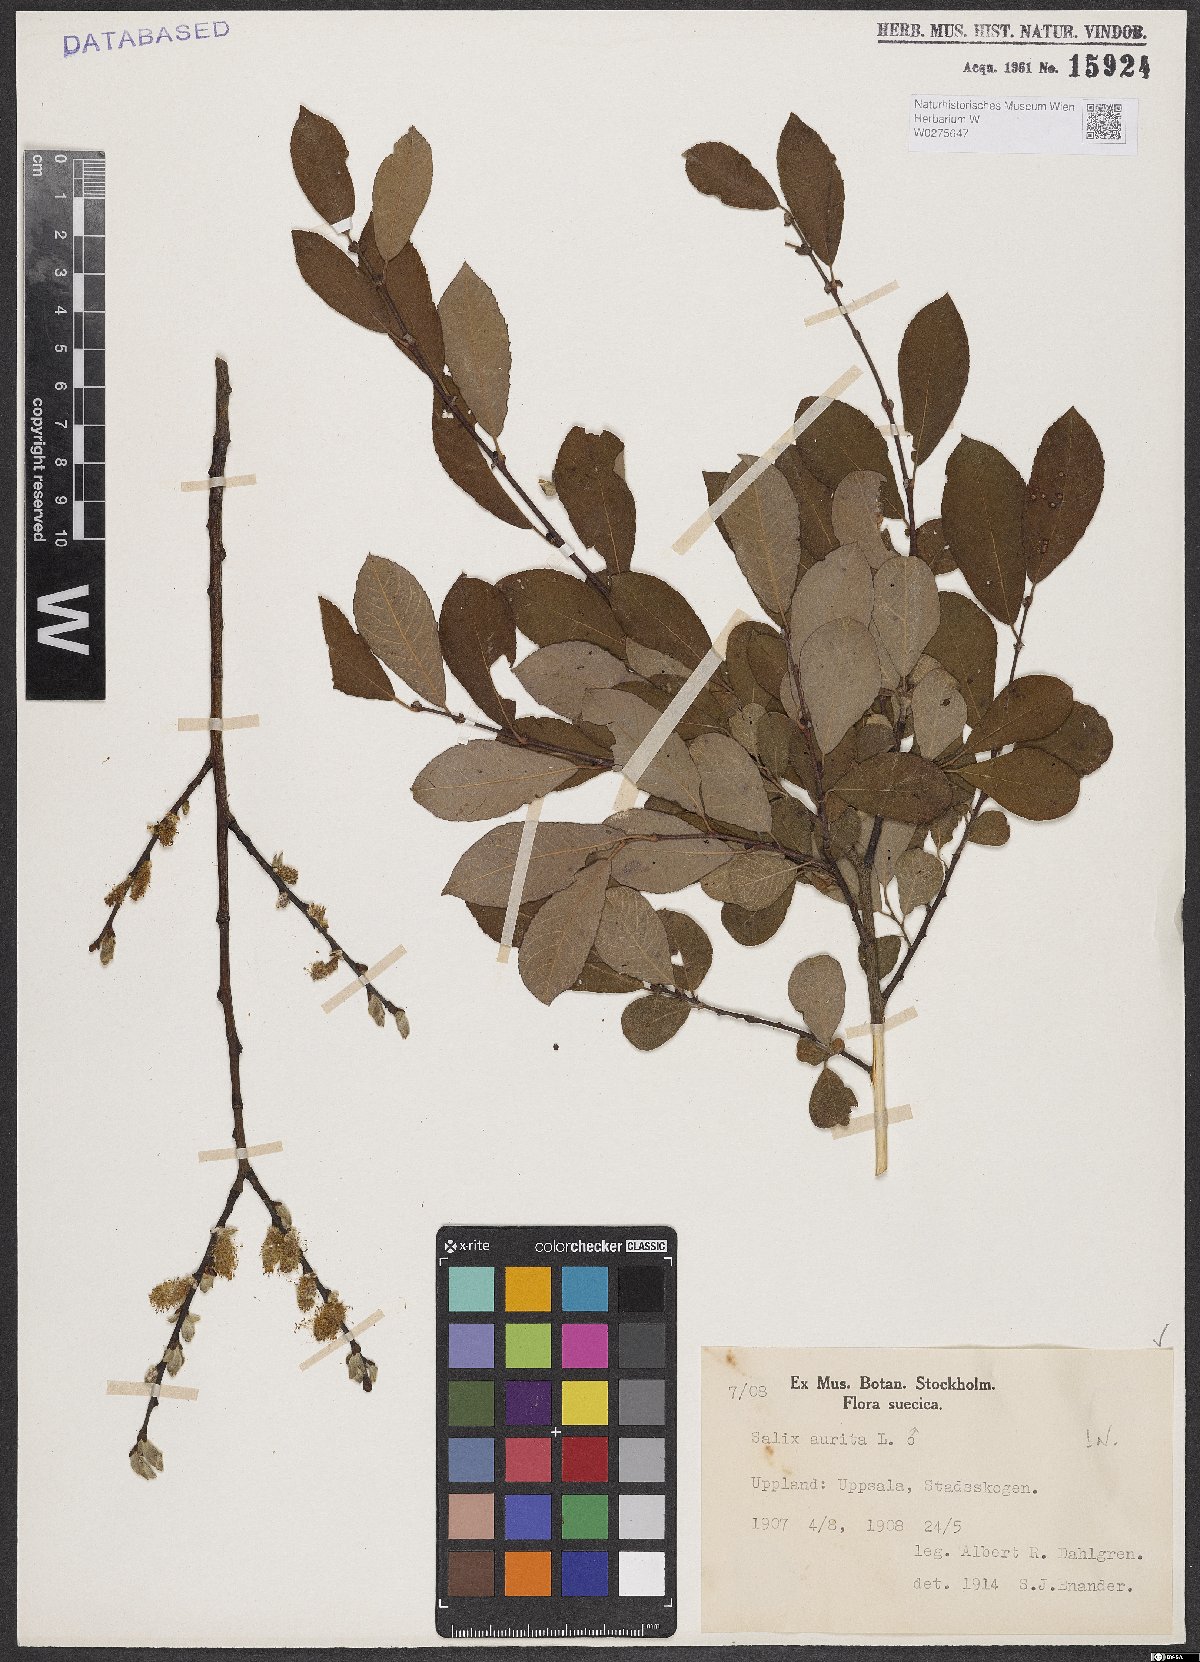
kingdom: Plantae
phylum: Tracheophyta
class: Magnoliopsida
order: Malpighiales
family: Salicaceae
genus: Salix
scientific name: Salix aurita
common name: Eared willow
